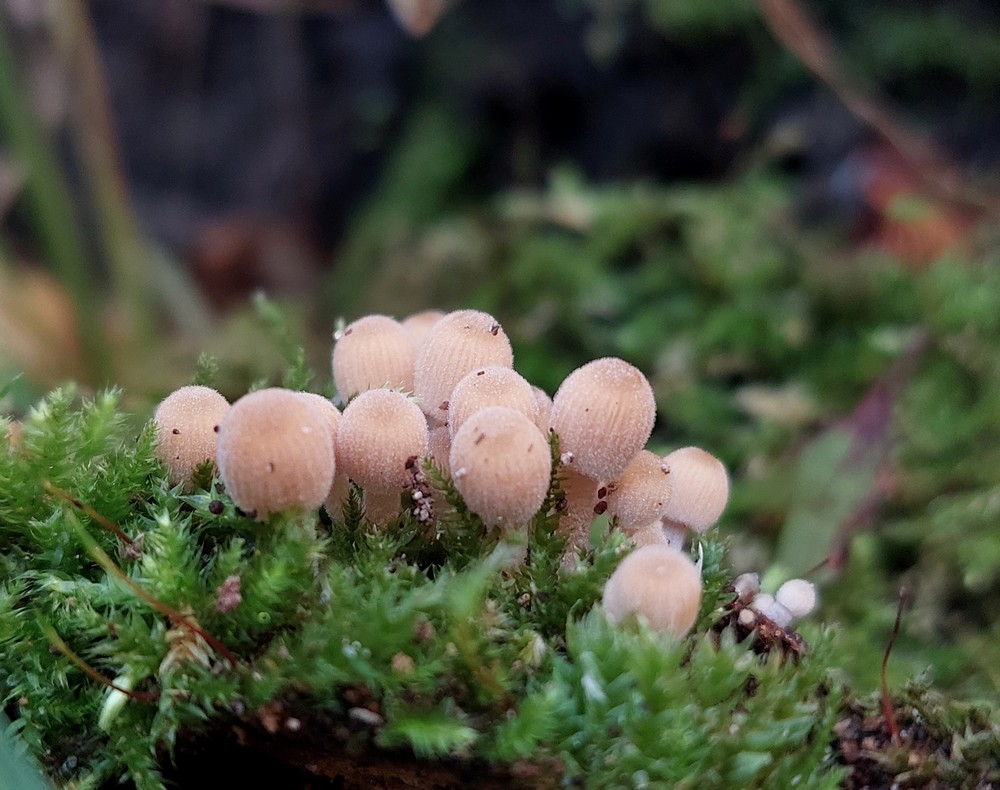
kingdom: Fungi
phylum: Basidiomycota
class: Agaricomycetes
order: Agaricales
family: Psathyrellaceae
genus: Coprinellus
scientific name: Coprinellus disseminatus
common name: bredsået blækhat
